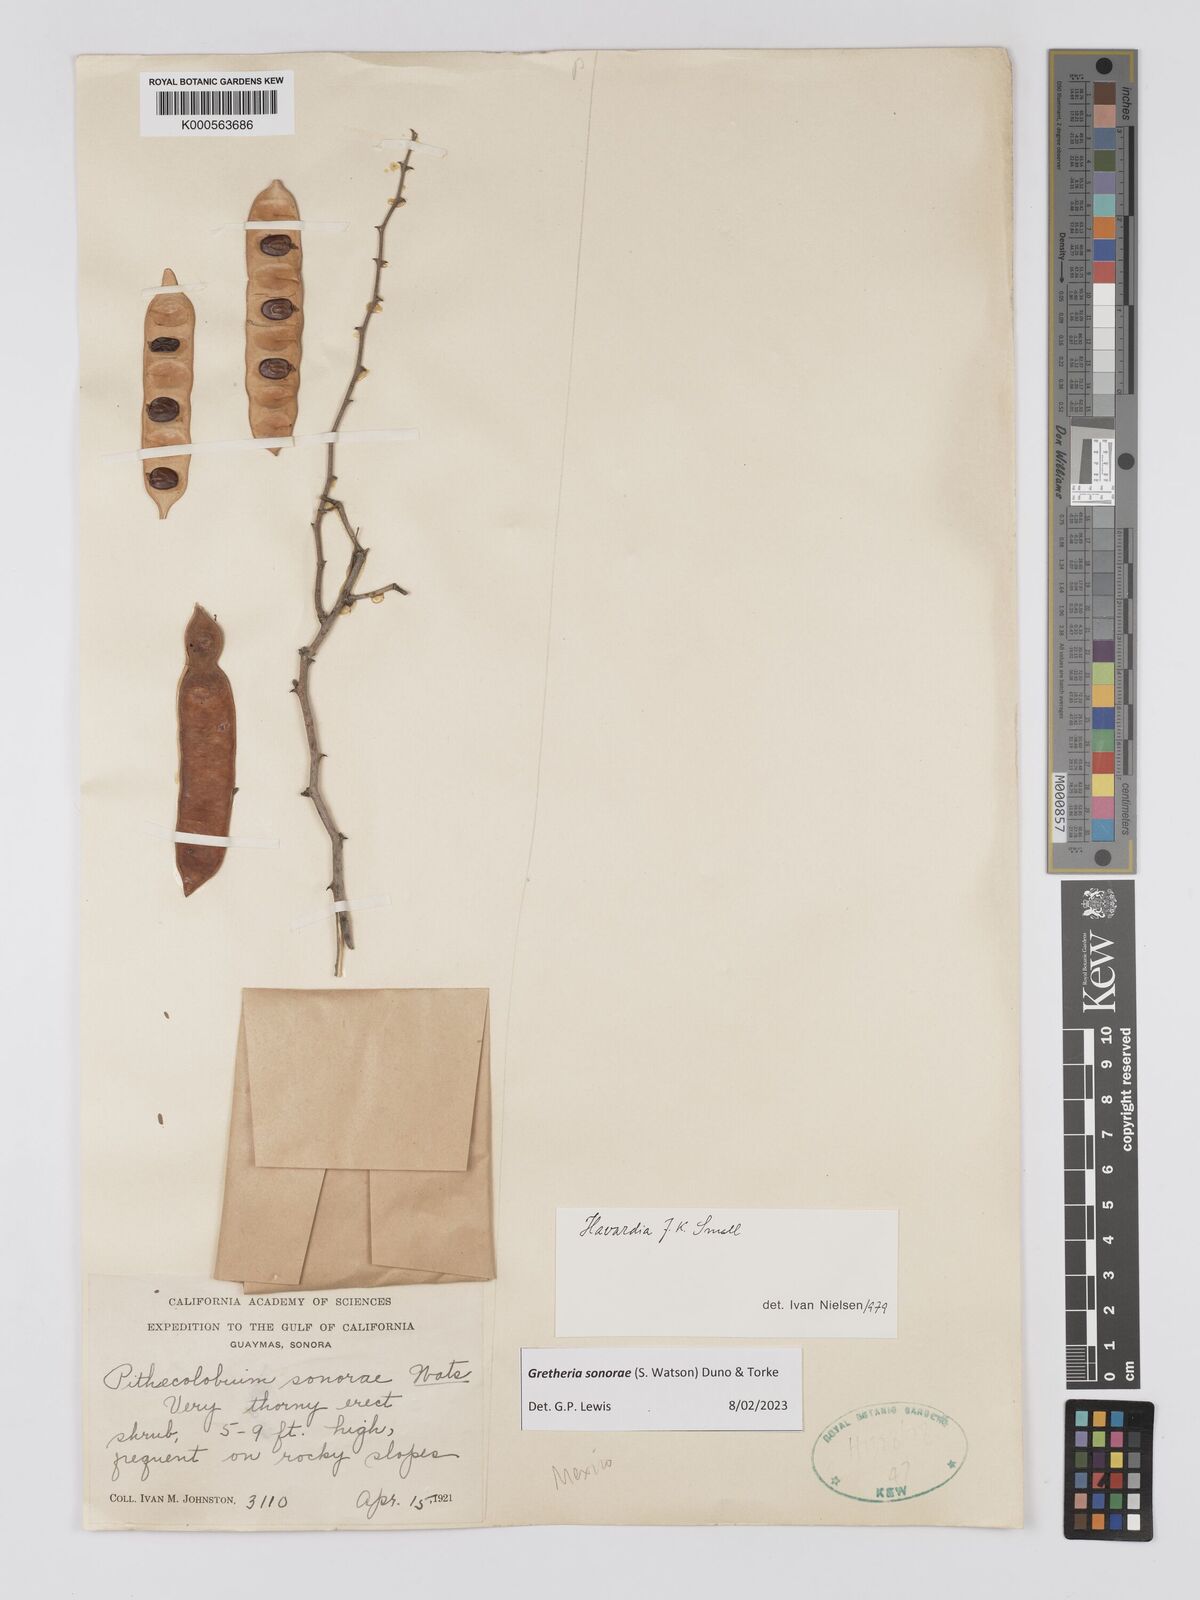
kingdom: Plantae
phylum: Tracheophyta
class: Magnoliopsida
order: Fabales
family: Fabaceae
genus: Havardia
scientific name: Havardia sonorae
